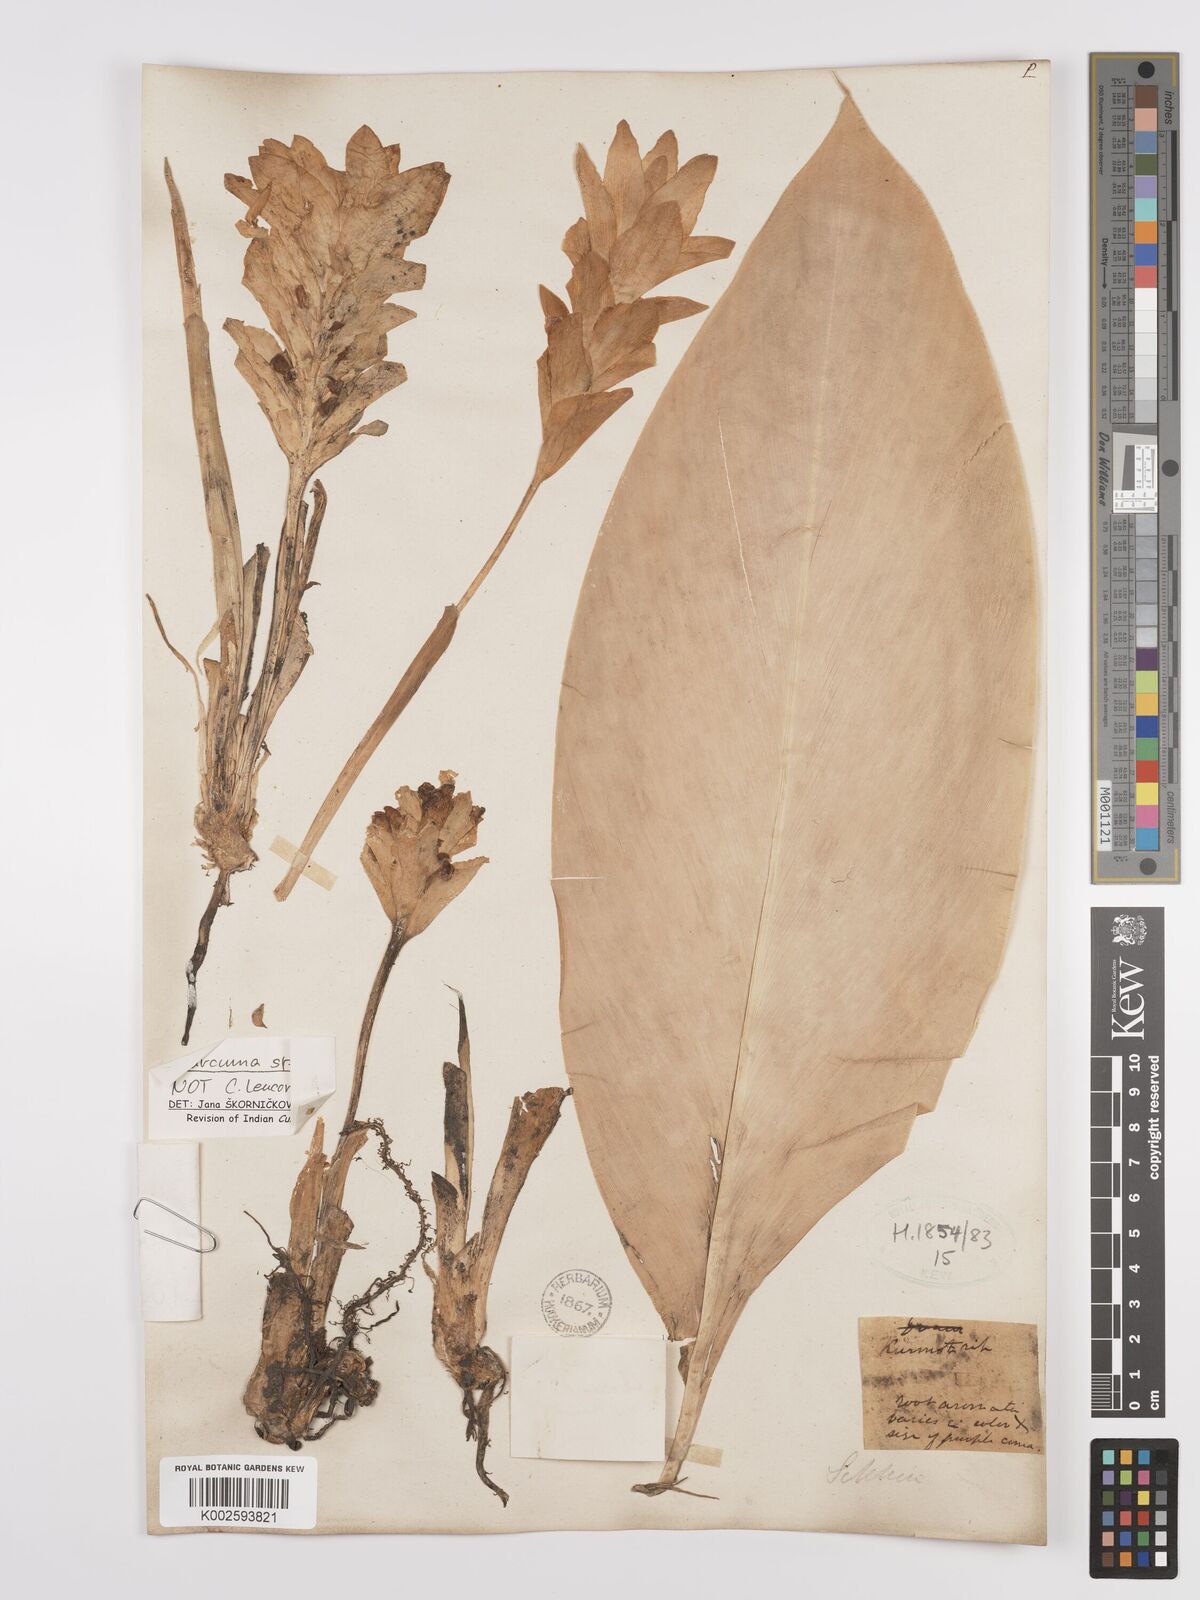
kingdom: Plantae
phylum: Tracheophyta
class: Liliopsida
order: Zingiberales
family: Zingiberaceae
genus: Curcuma
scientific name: Curcuma leucorrhiza
